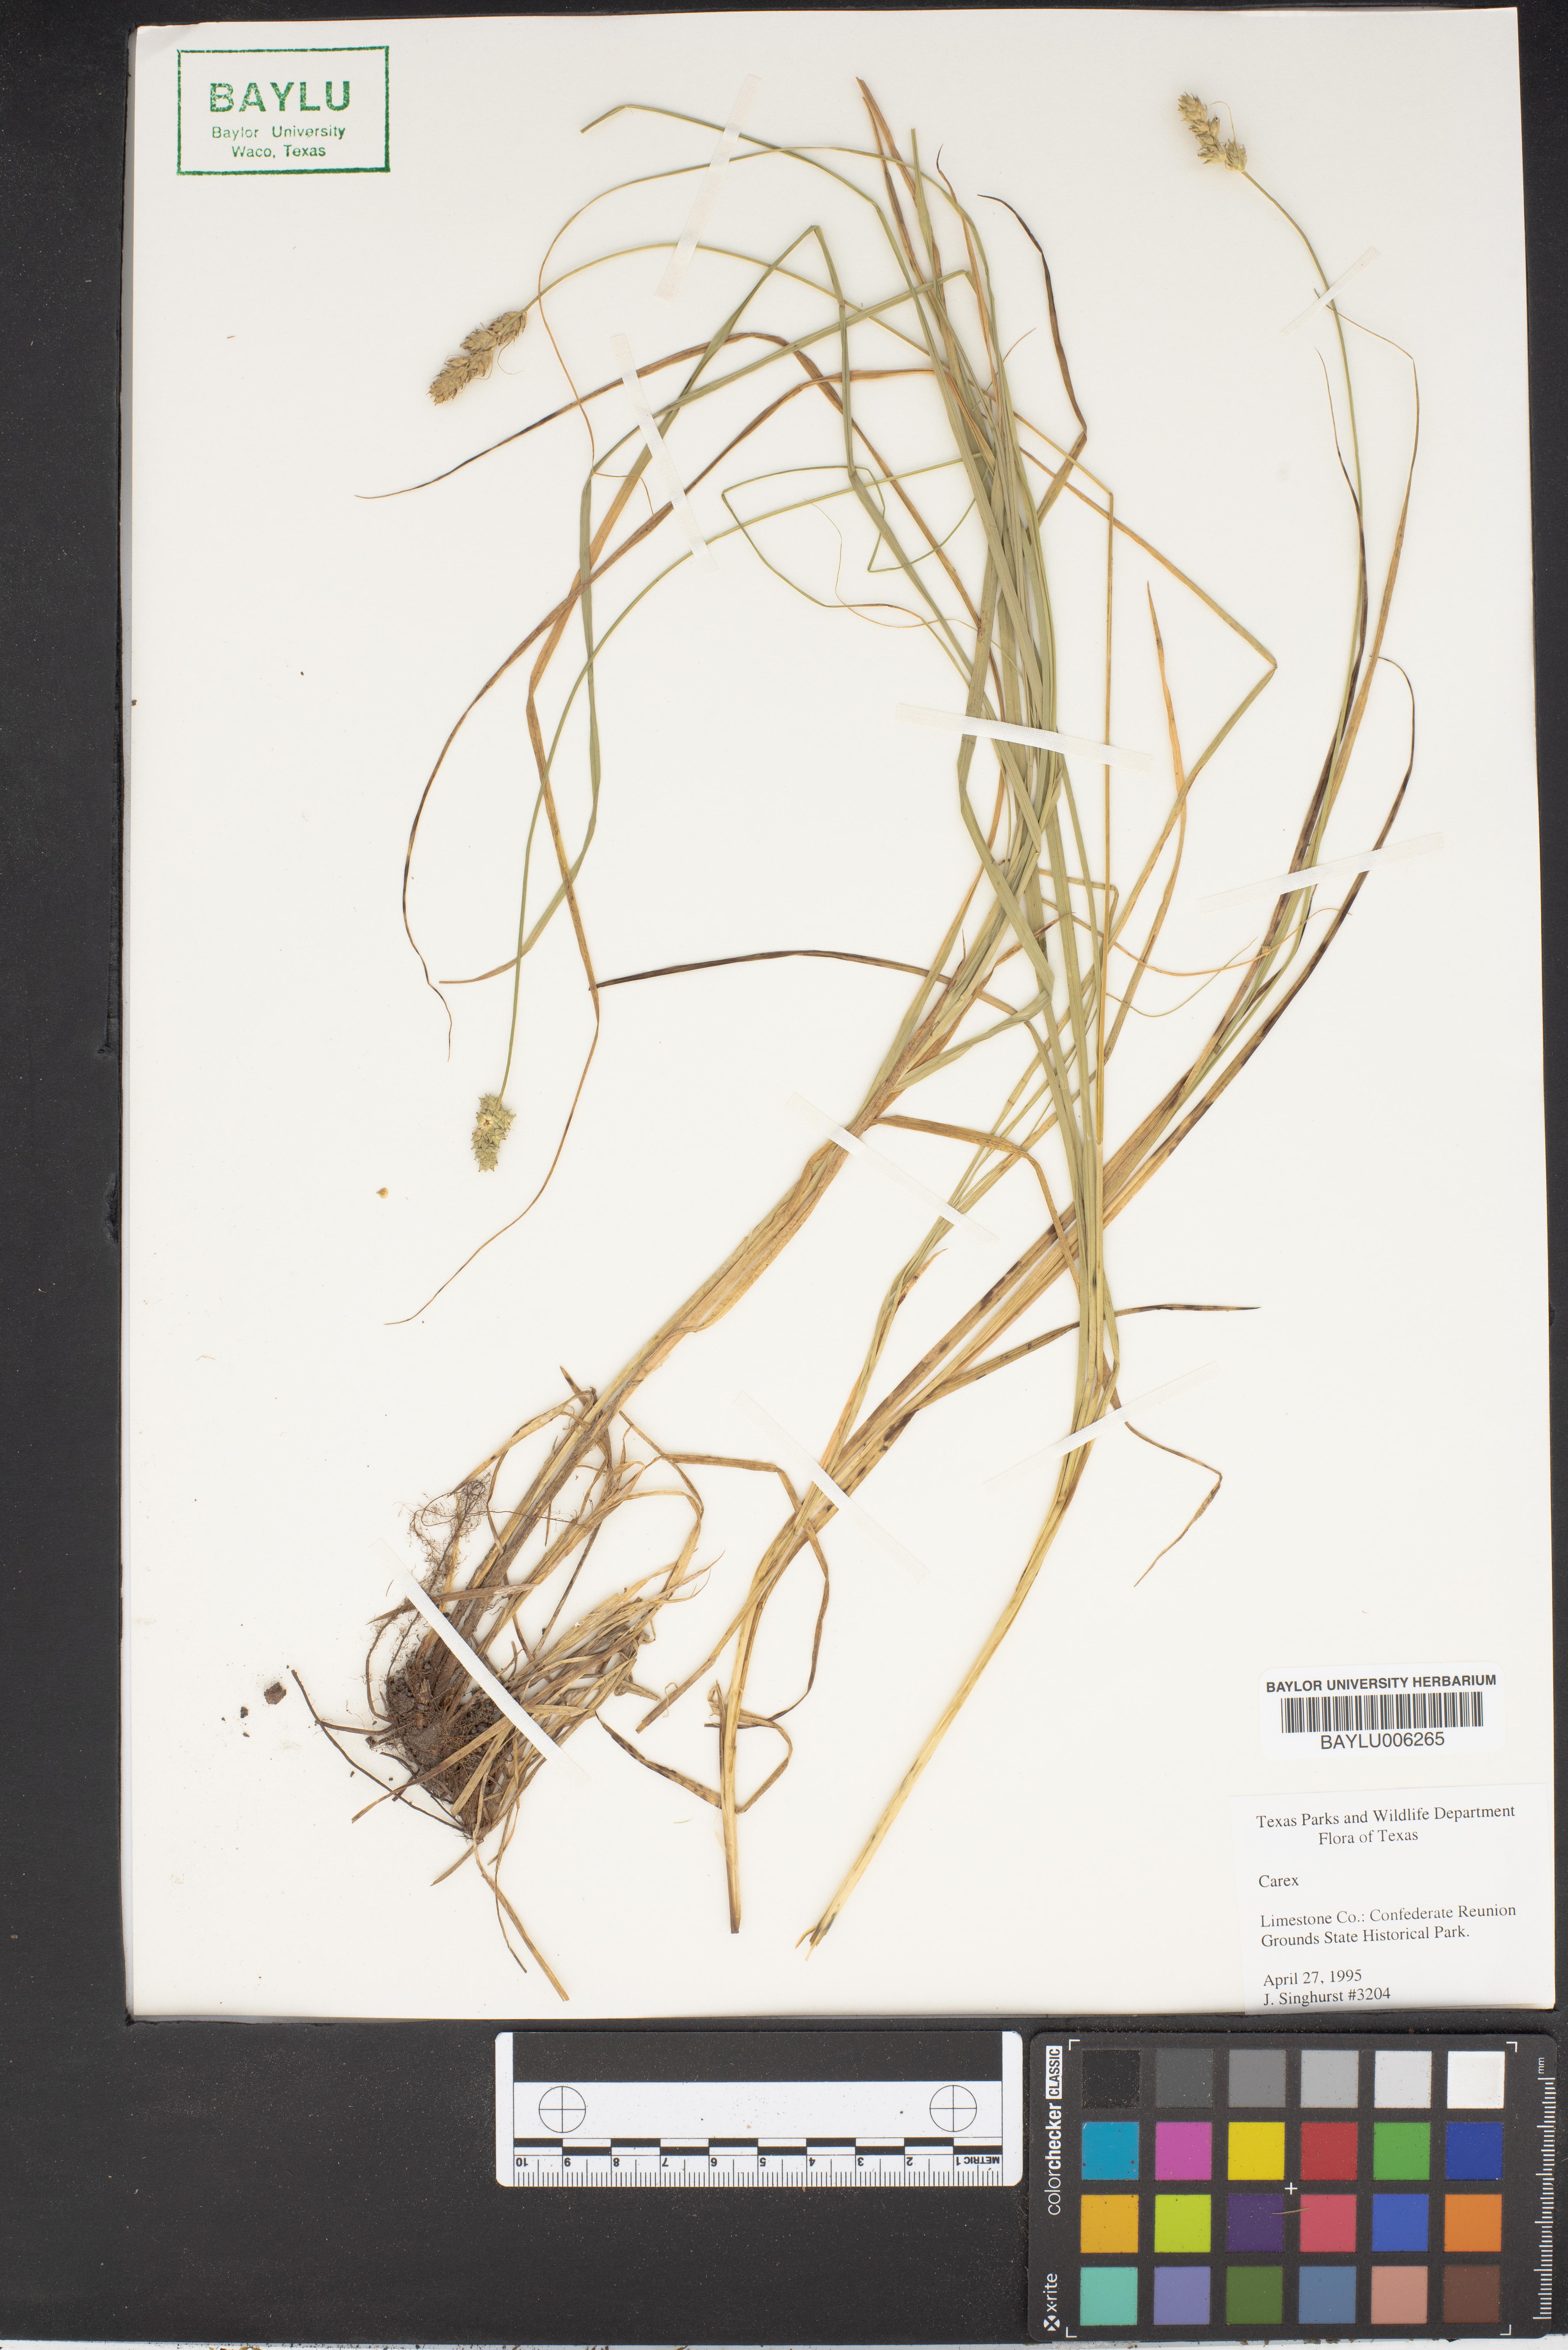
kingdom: Plantae
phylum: Tracheophyta
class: Liliopsida
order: Poales
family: Cyperaceae
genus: Carex
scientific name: Carex
